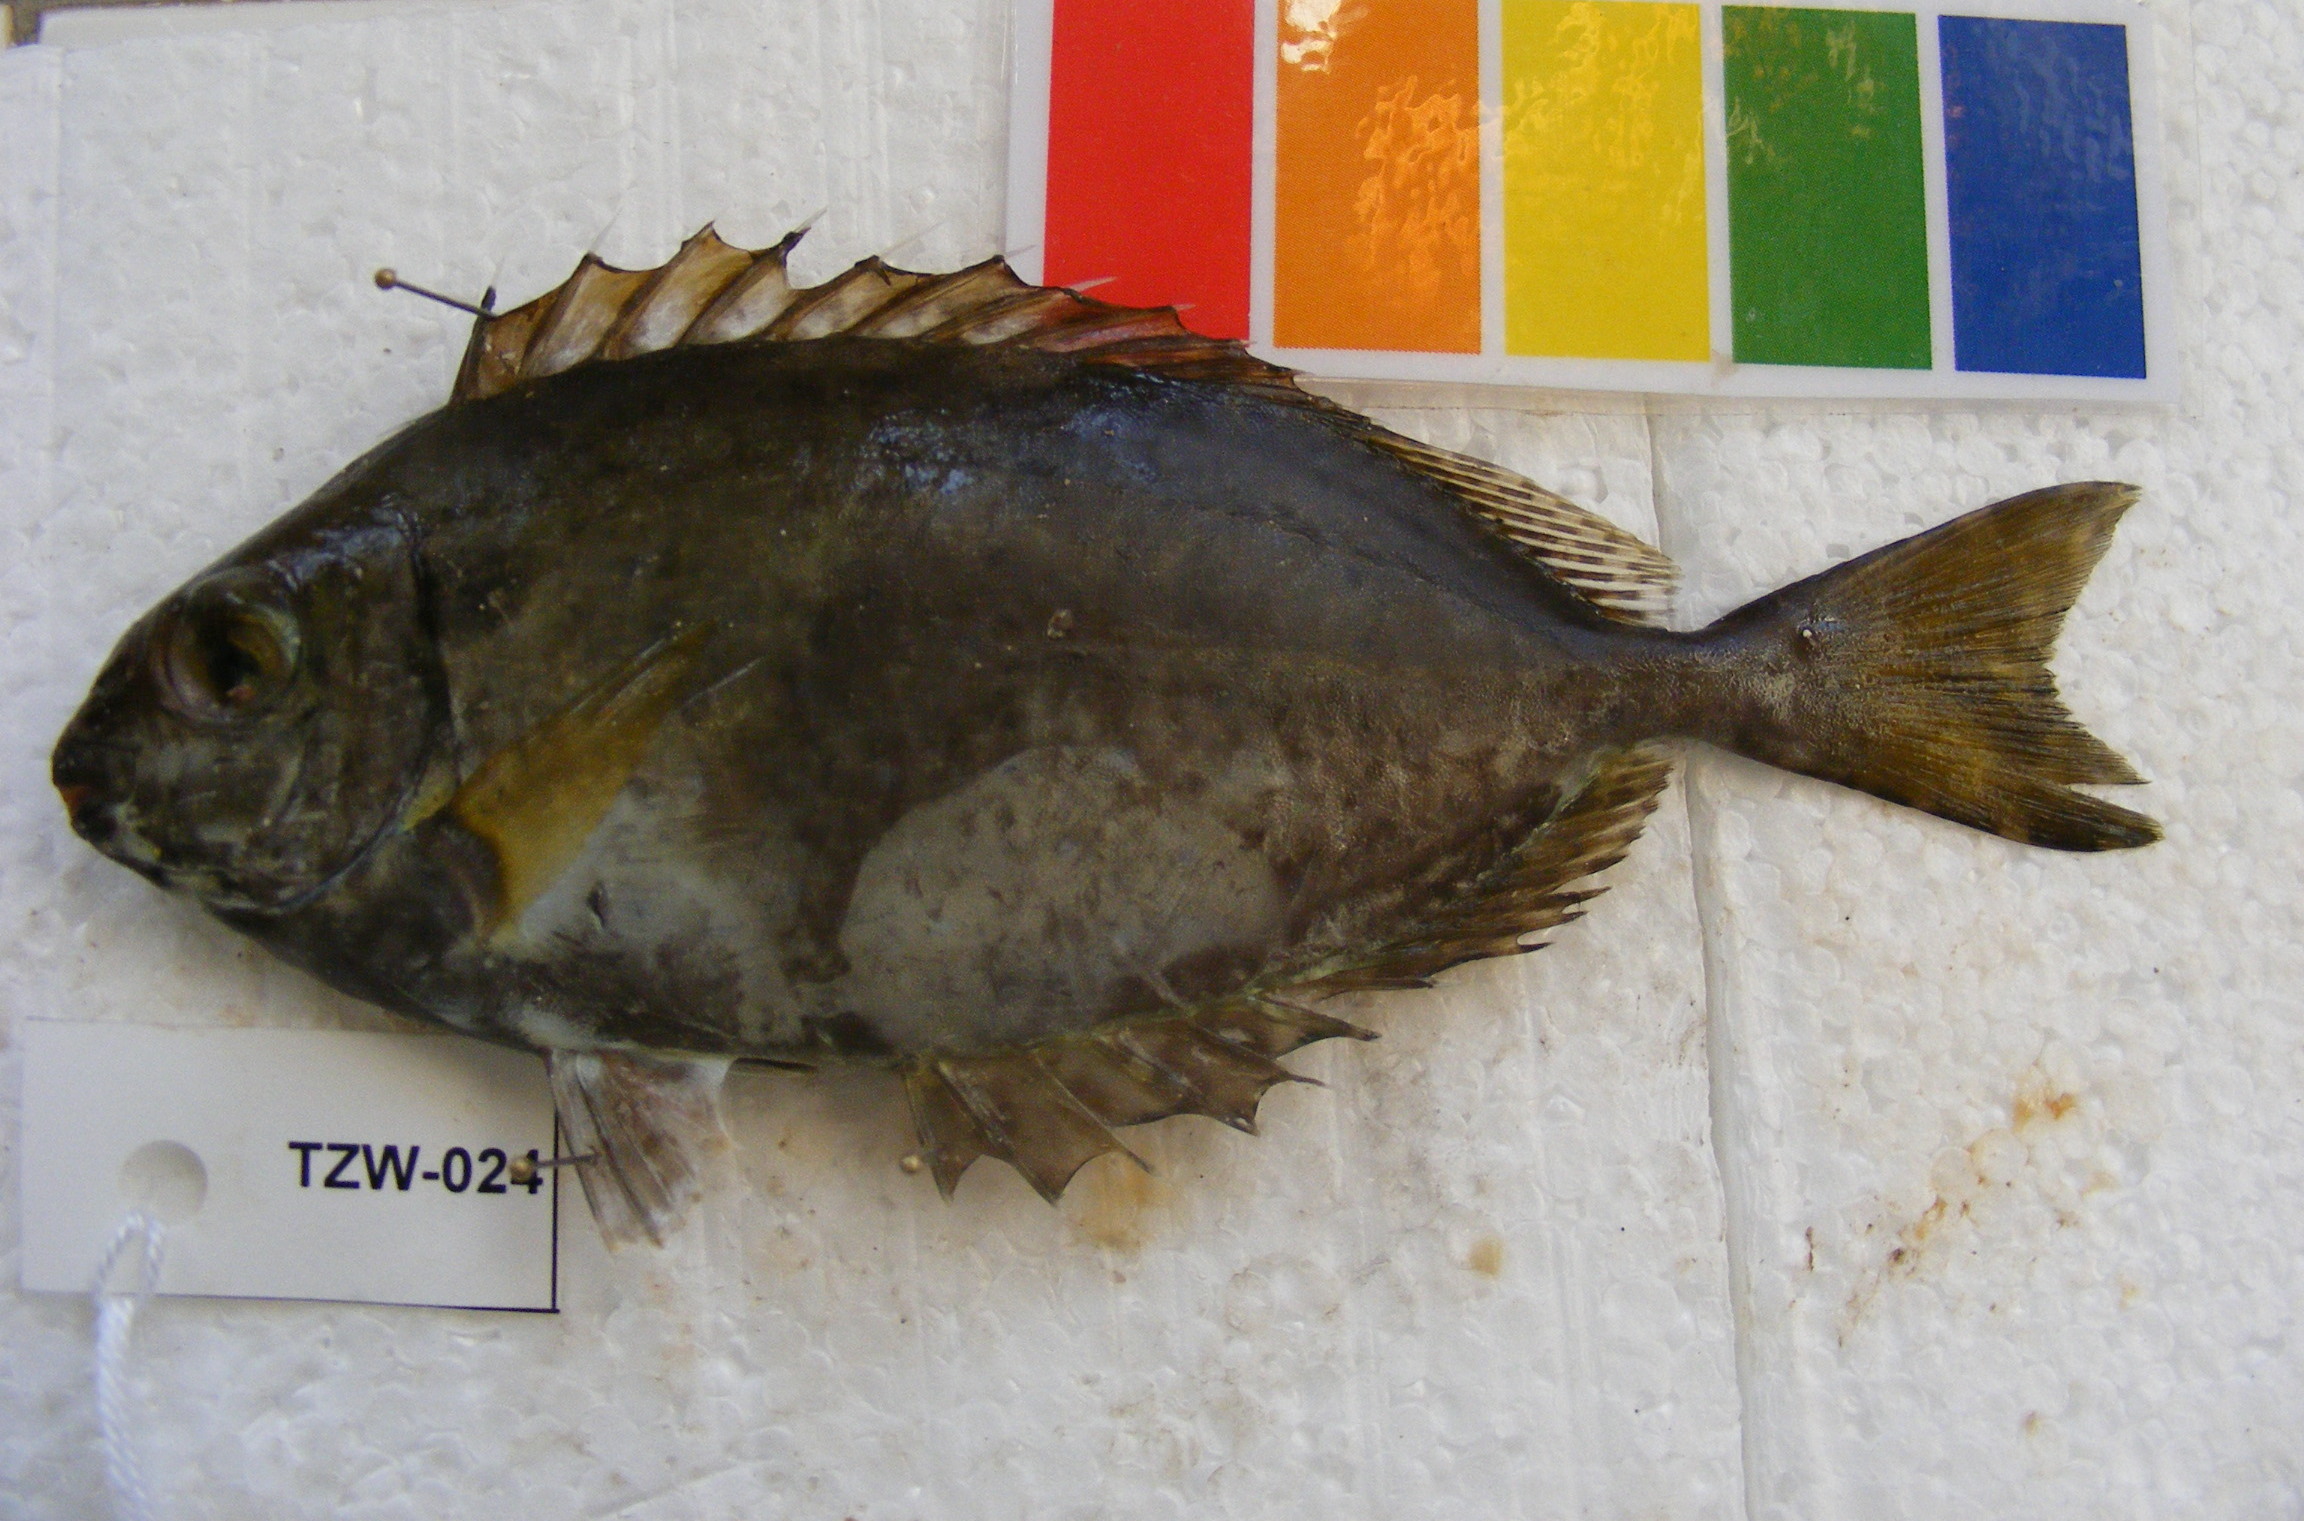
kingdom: Animalia
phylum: Chordata
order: Perciformes
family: Siganidae
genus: Siganus
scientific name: Siganus sutor
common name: Shoemaker spinefoot
